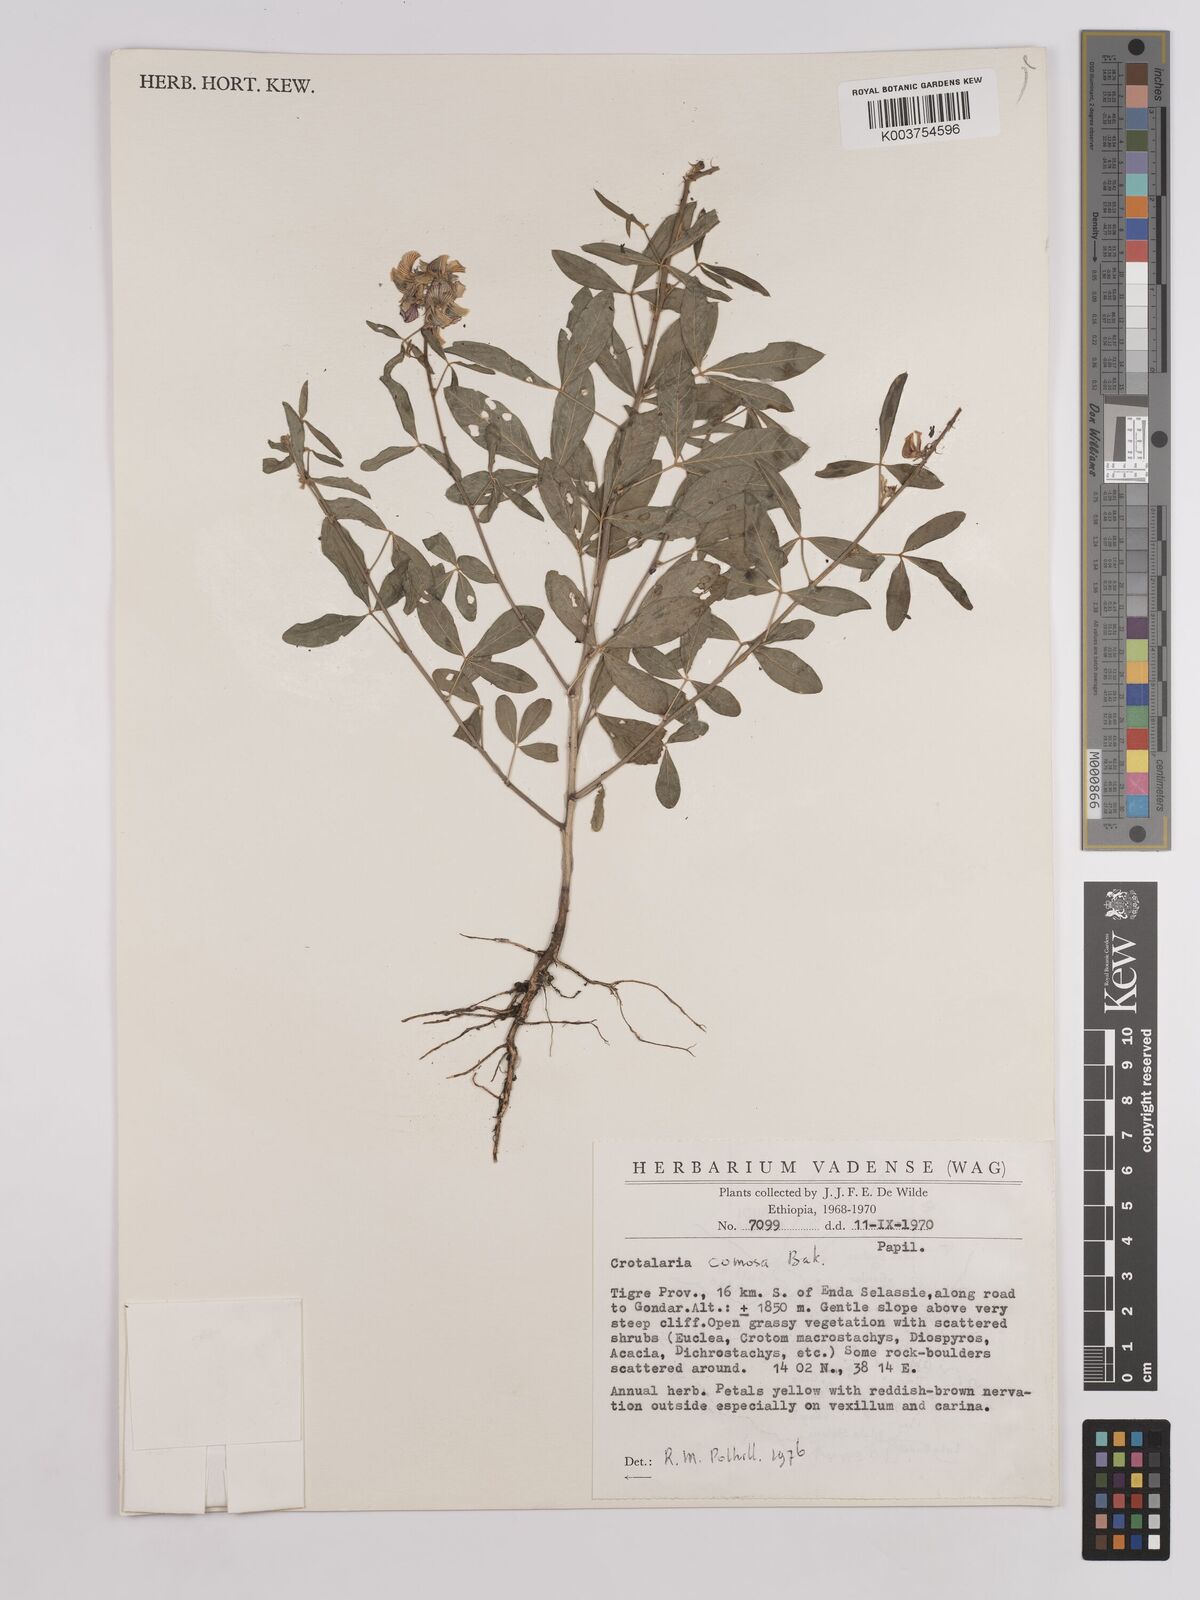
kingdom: Plantae
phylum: Tracheophyta
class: Magnoliopsida
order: Fabales
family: Fabaceae
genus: Crotalaria
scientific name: Crotalaria comosa
